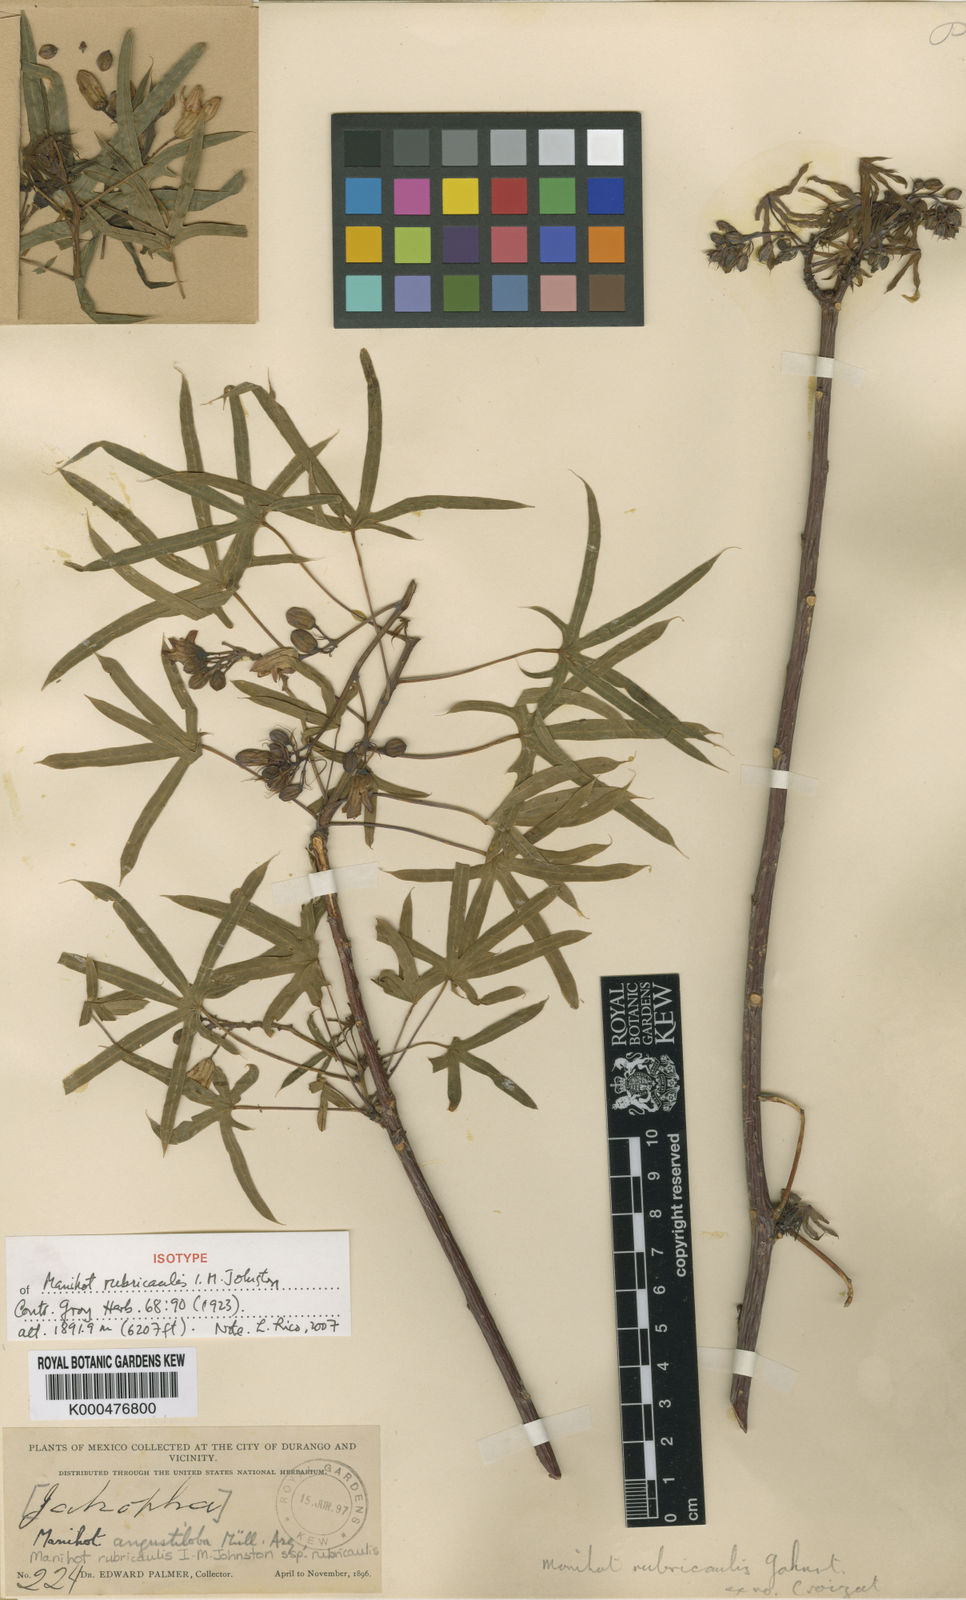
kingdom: Plantae
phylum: Tracheophyta
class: Magnoliopsida
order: Malpighiales
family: Euphorbiaceae
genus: Manihot
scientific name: Manihot rubricaulis
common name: Redstem cassava
